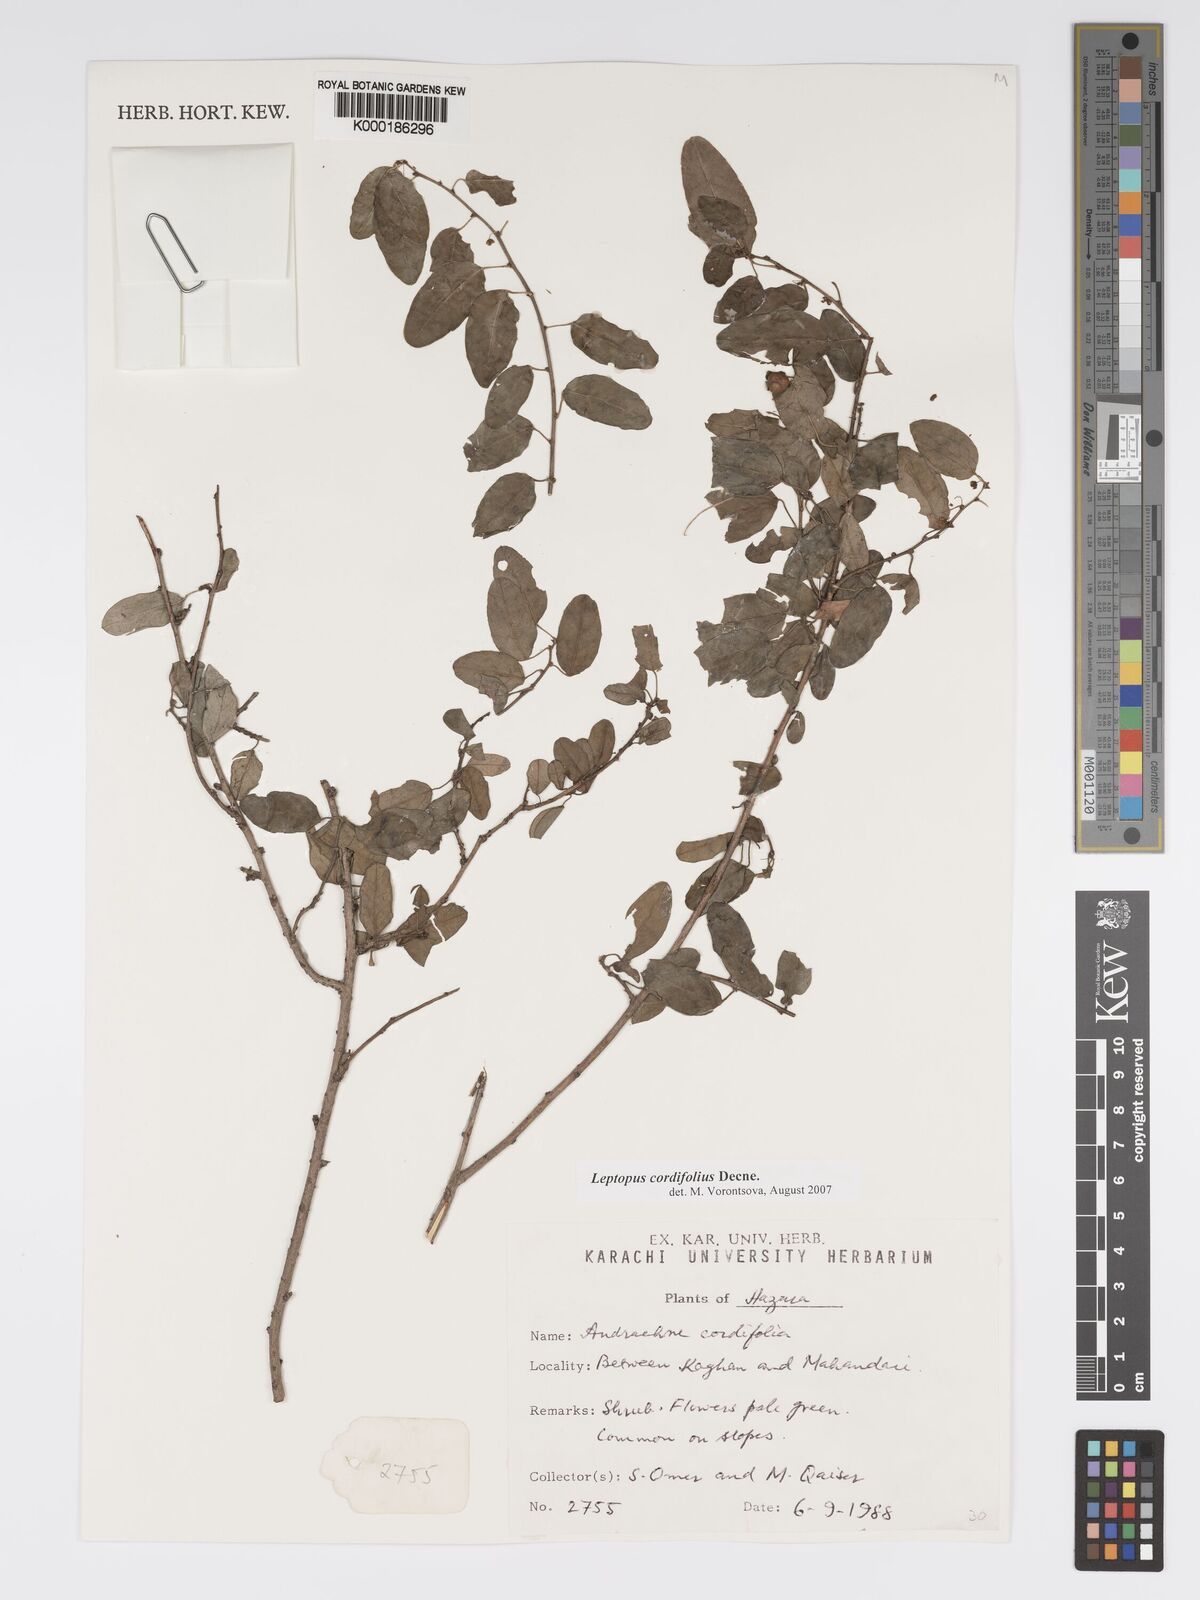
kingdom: Plantae
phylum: Tracheophyta
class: Magnoliopsida
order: Malpighiales
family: Phyllanthaceae
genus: Leptopus
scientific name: Leptopus cordifolius
